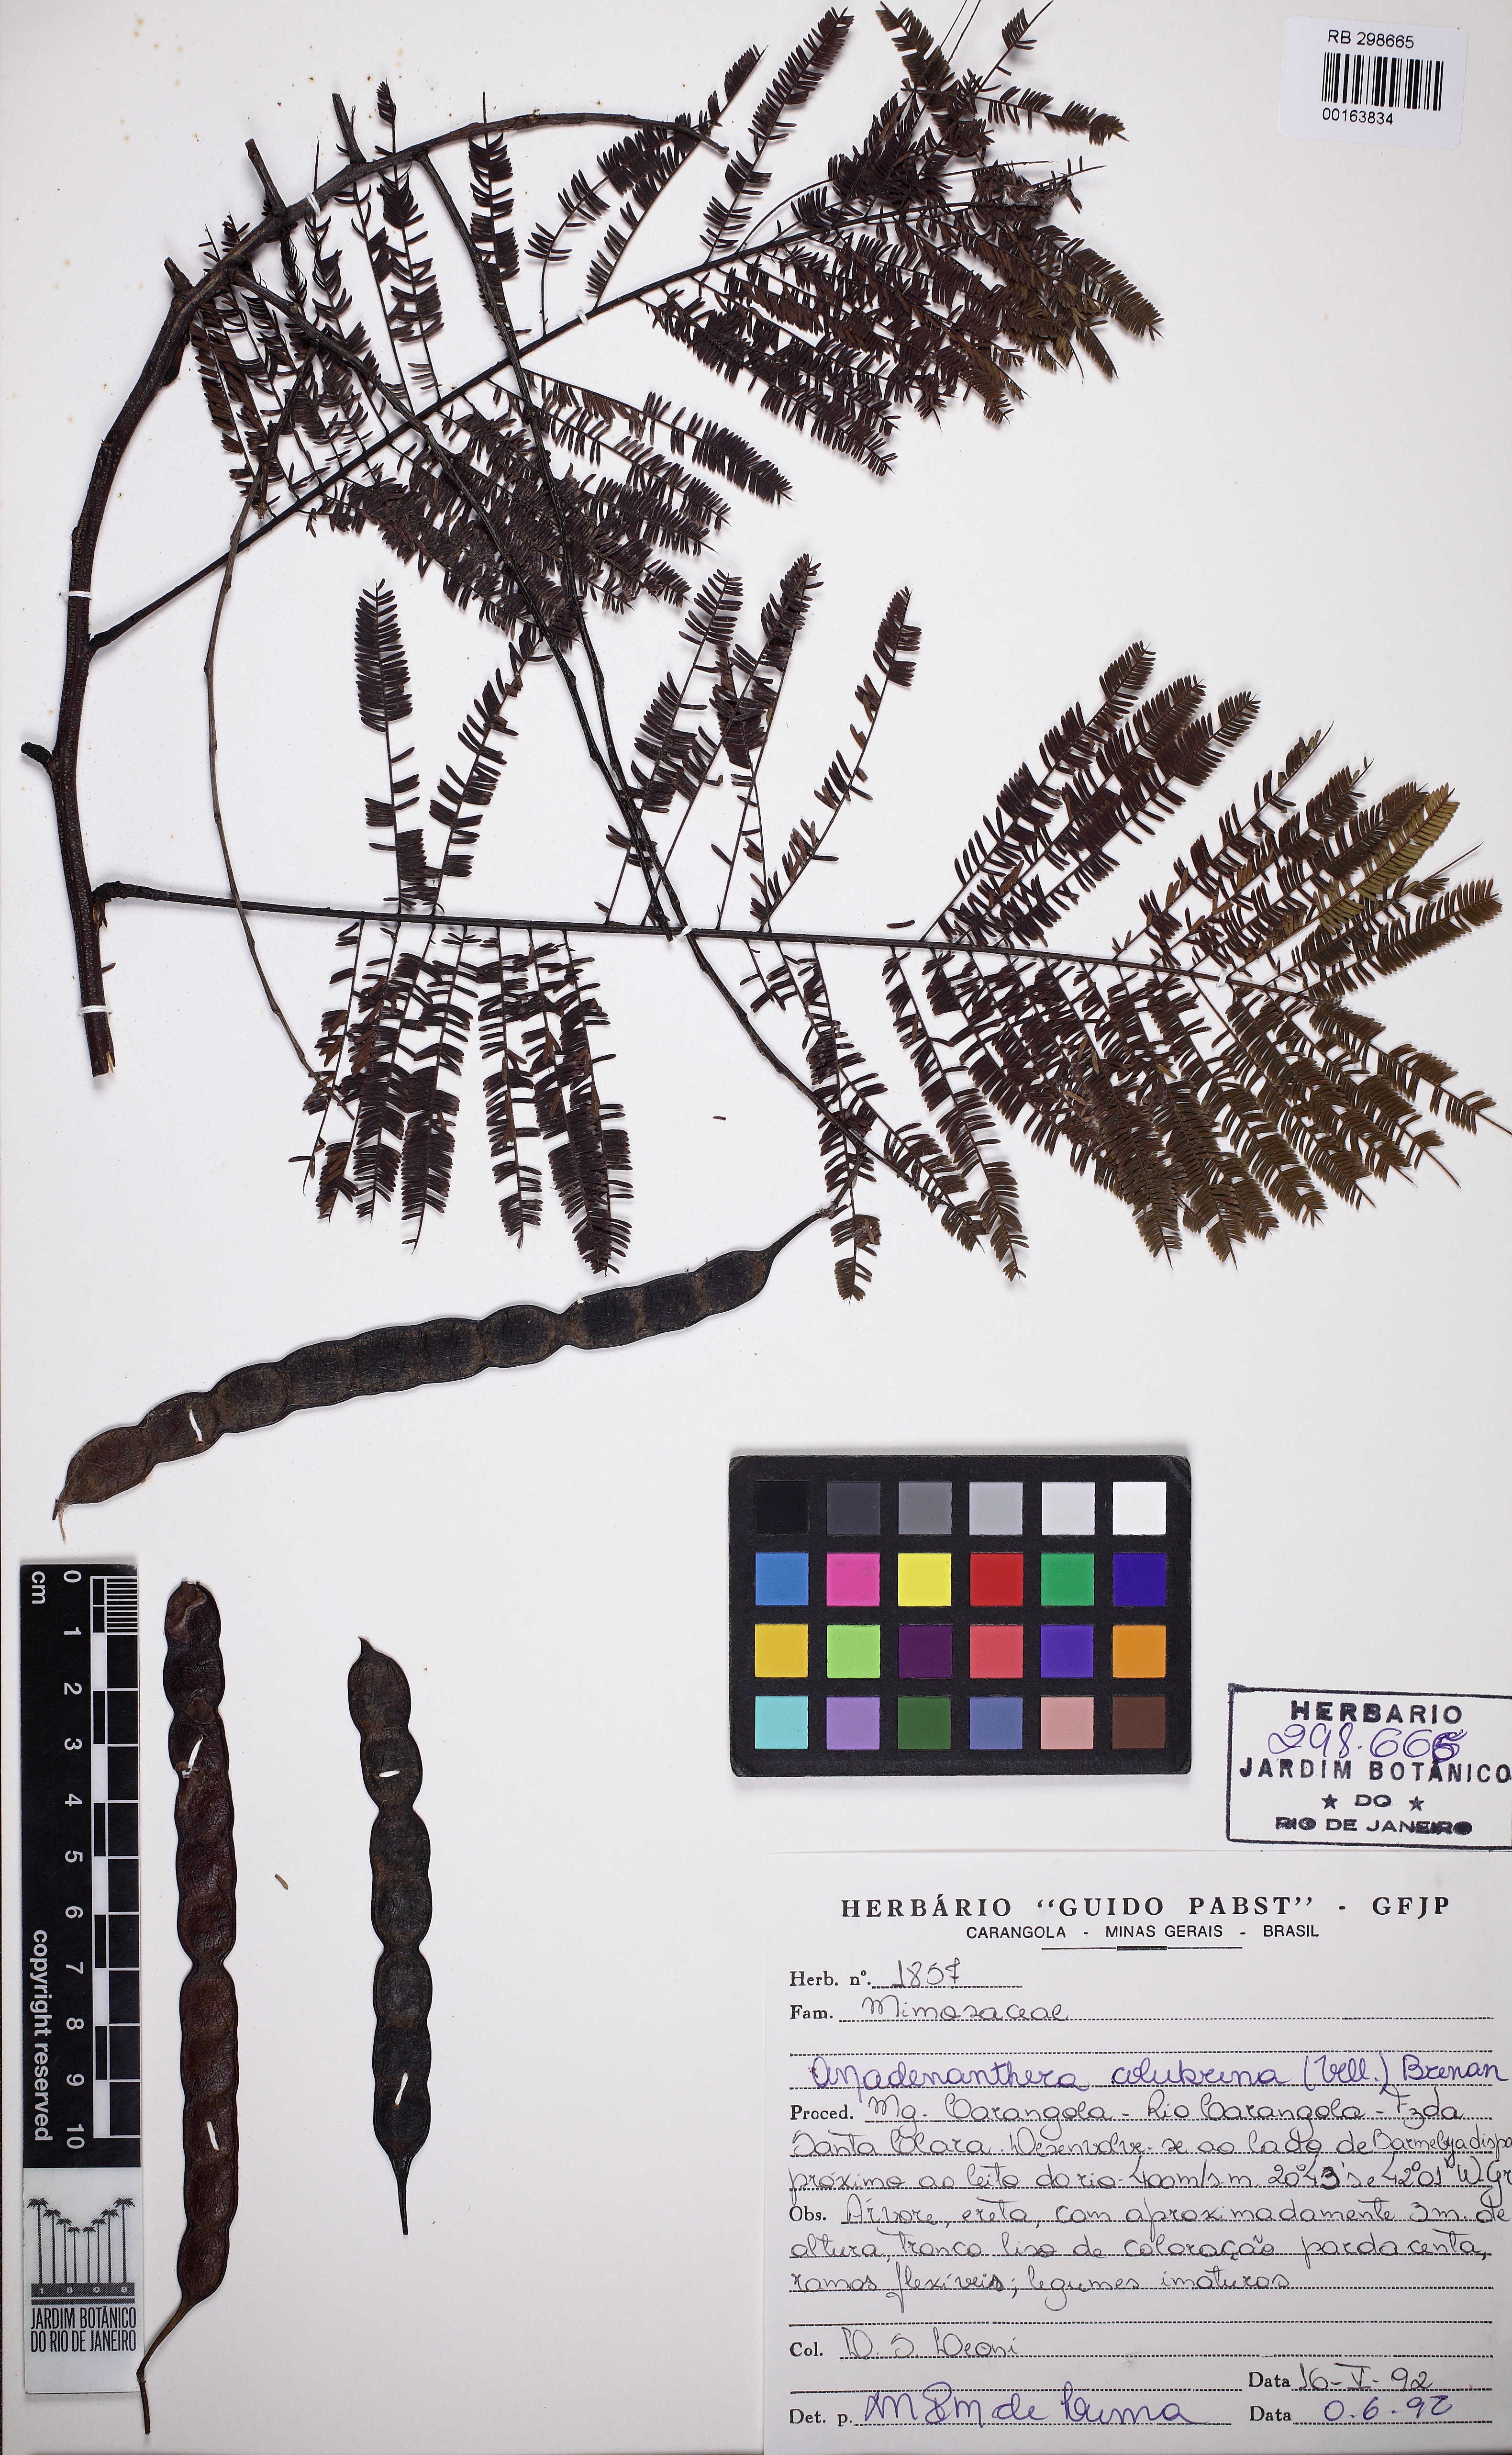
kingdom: Plantae
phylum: Tracheophyta
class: Magnoliopsida
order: Fabales
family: Fabaceae
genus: Anadenanthera
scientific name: Anadenanthera colubrina
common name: Curupay
